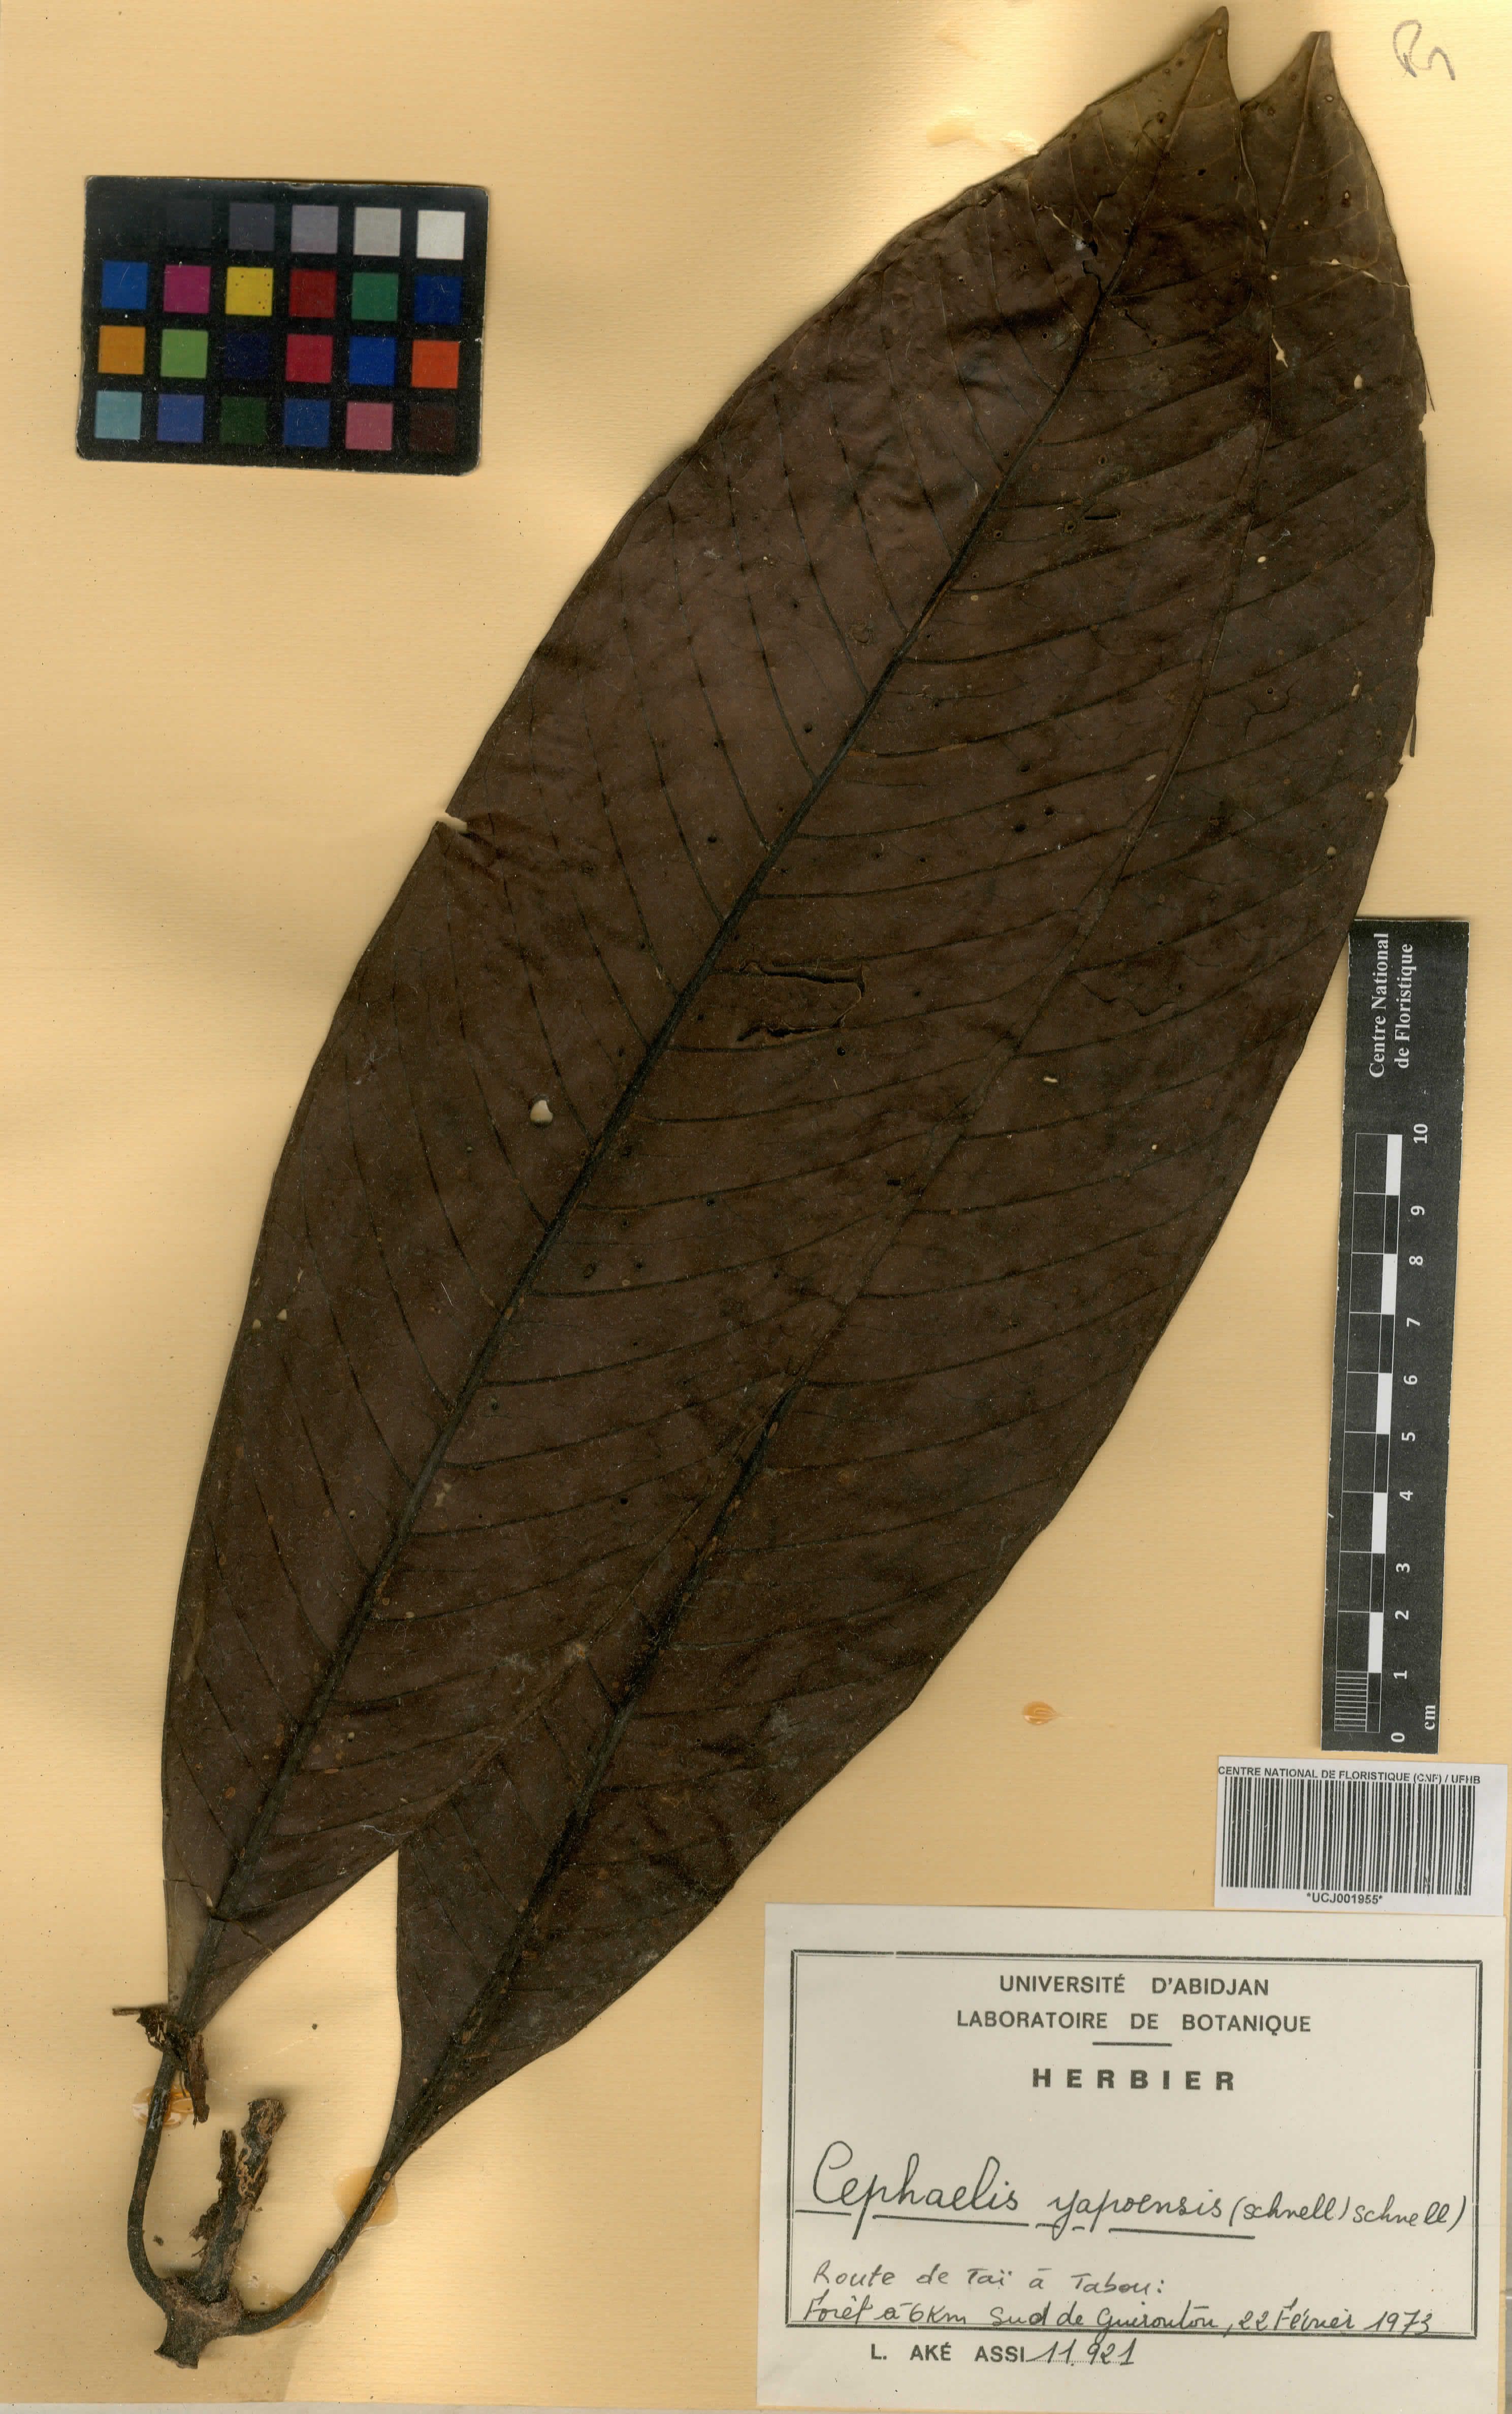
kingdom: Plantae
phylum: Tracheophyta
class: Magnoliopsida
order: Gentianales
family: Rubiaceae
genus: Psychotria
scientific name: Psychotria yapoensis
